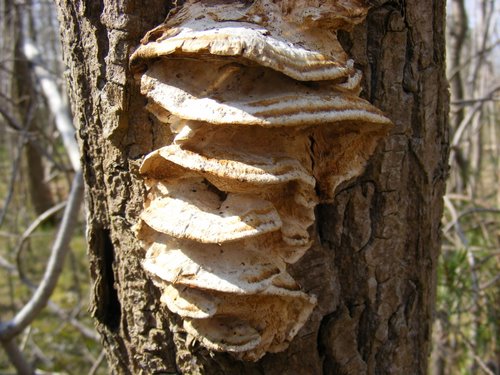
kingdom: Fungi
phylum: Basidiomycota
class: Agaricomycetes
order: Polyporales
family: Phanerochaetaceae
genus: Bjerkandera
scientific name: Bjerkandera fumosa
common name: grågul sodporesvamp
